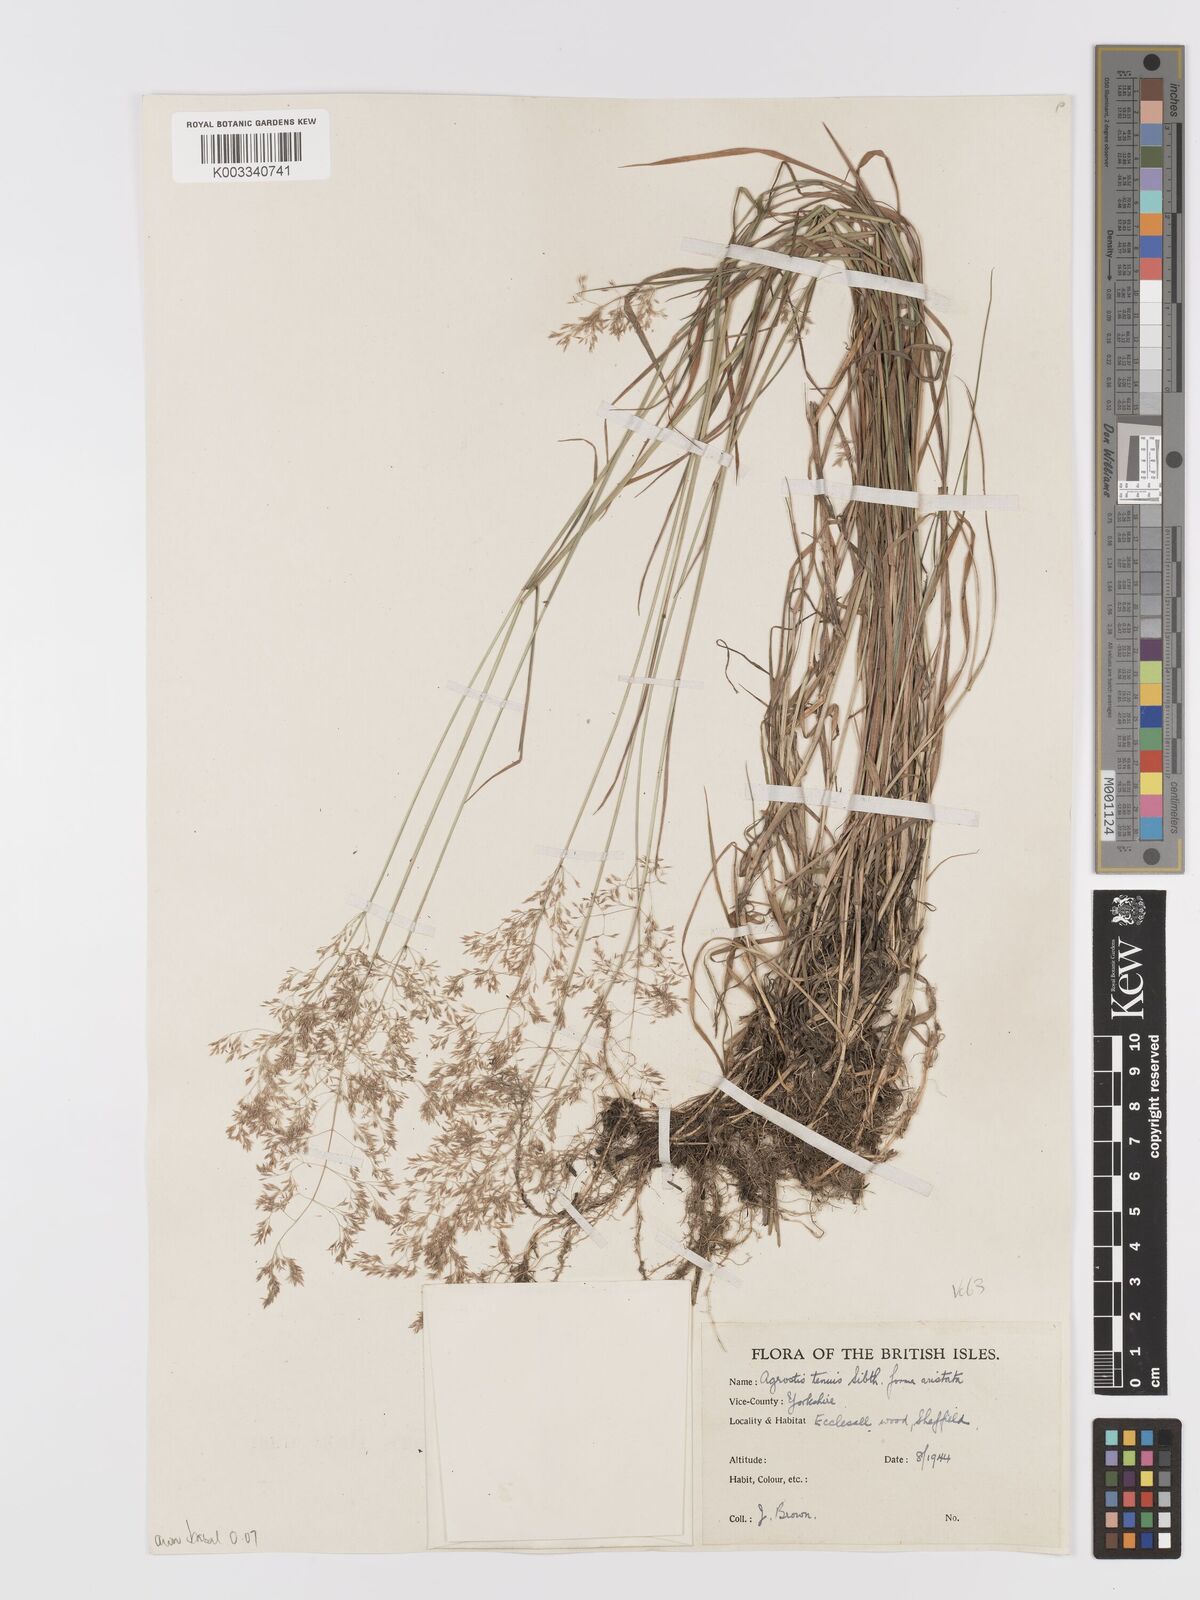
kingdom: Plantae
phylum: Tracheophyta
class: Liliopsida
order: Poales
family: Poaceae
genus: Agrostis
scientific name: Agrostis capillaris
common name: Colonial bentgrass
